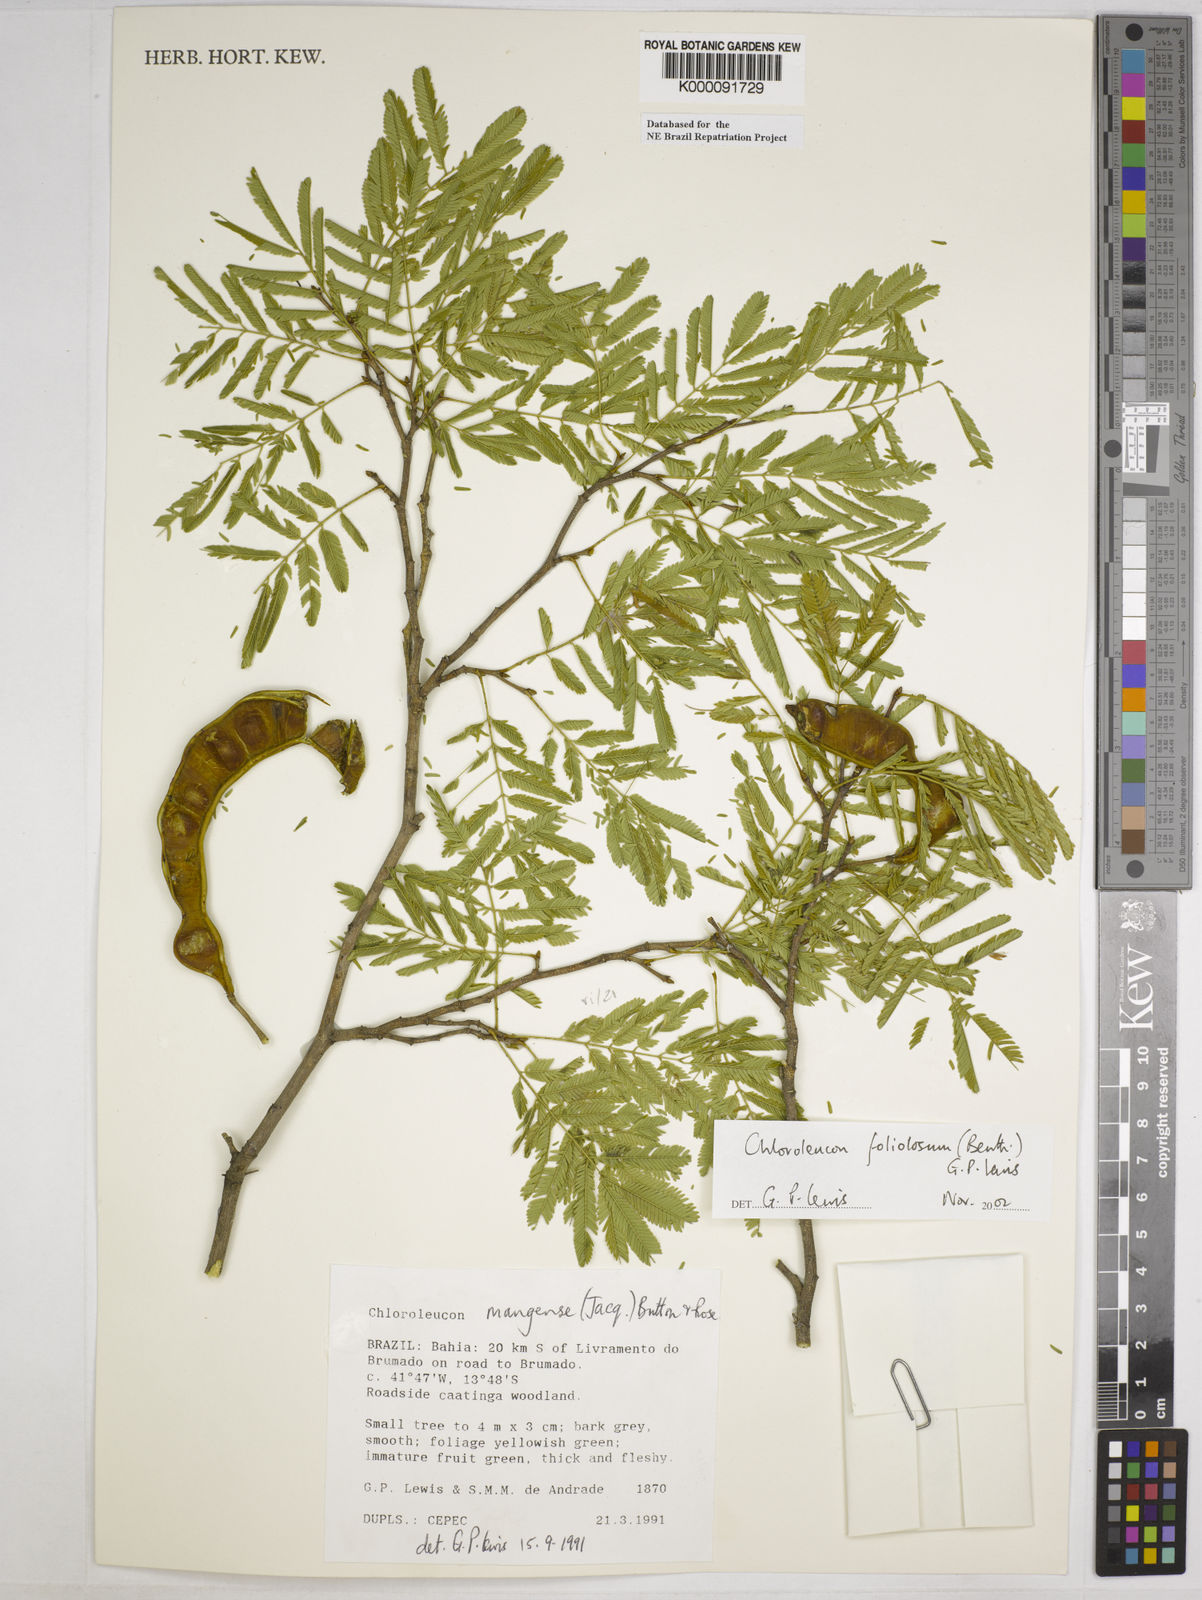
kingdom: Plantae
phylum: Tracheophyta
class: Magnoliopsida
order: Fabales
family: Fabaceae
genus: Chloroleucon
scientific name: Chloroleucon foliolosum
